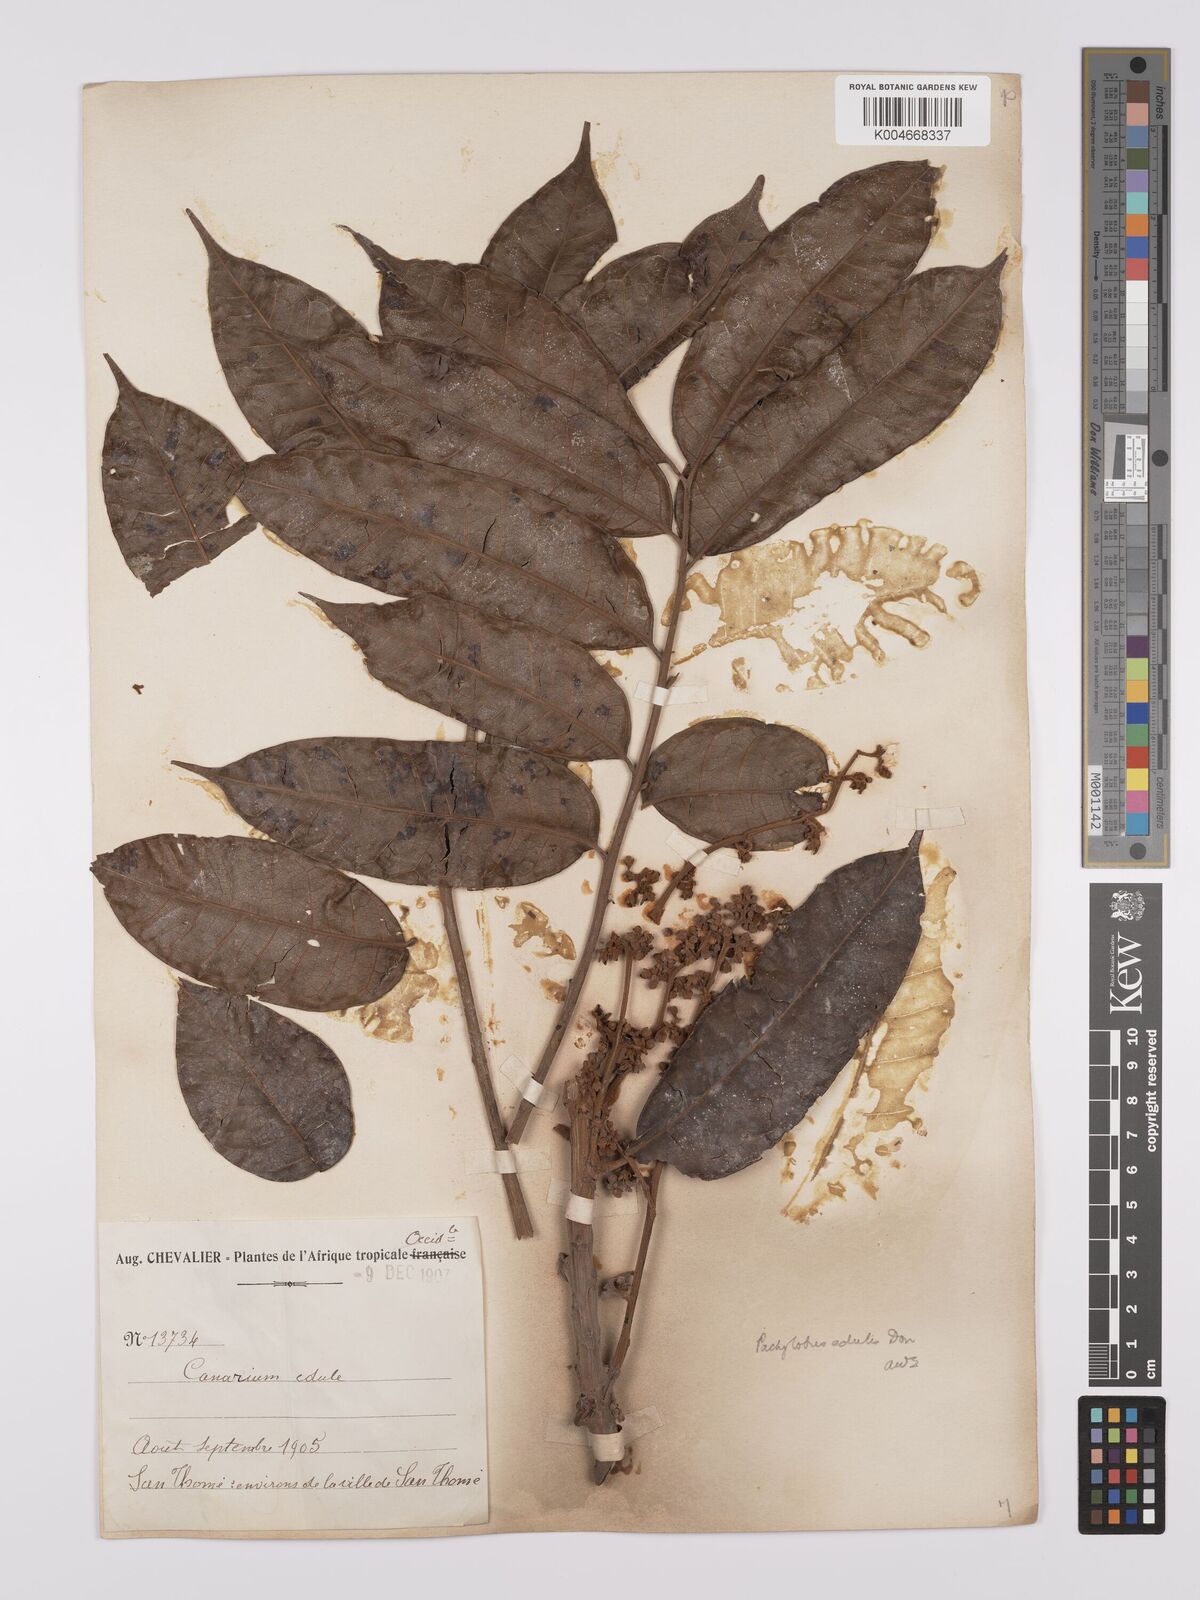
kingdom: Plantae
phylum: Tracheophyta
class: Magnoliopsida
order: Sapindales
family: Burseraceae
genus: Pachylobus
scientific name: Pachylobus edulis
